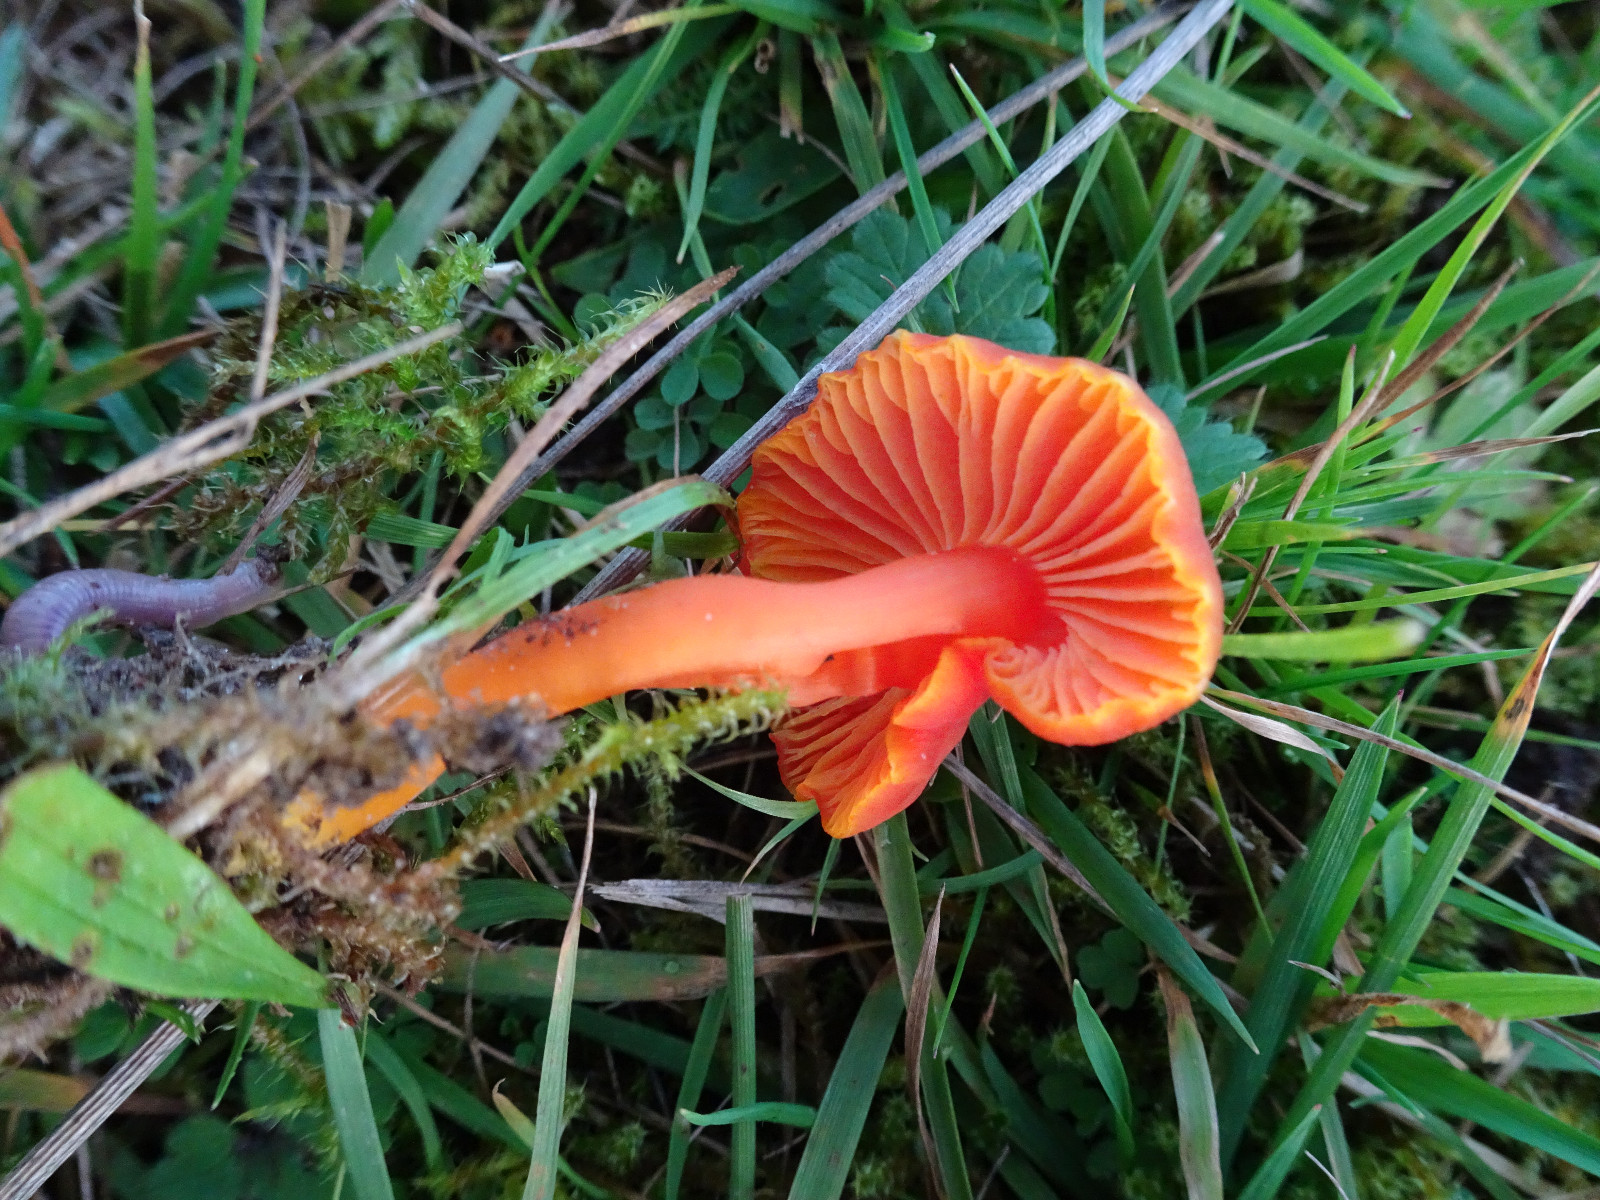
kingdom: Fungi
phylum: Basidiomycota
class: Agaricomycetes
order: Agaricales
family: Hygrophoraceae
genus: Hygrocybe
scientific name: Hygrocybe miniata
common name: mønje-vokshat
